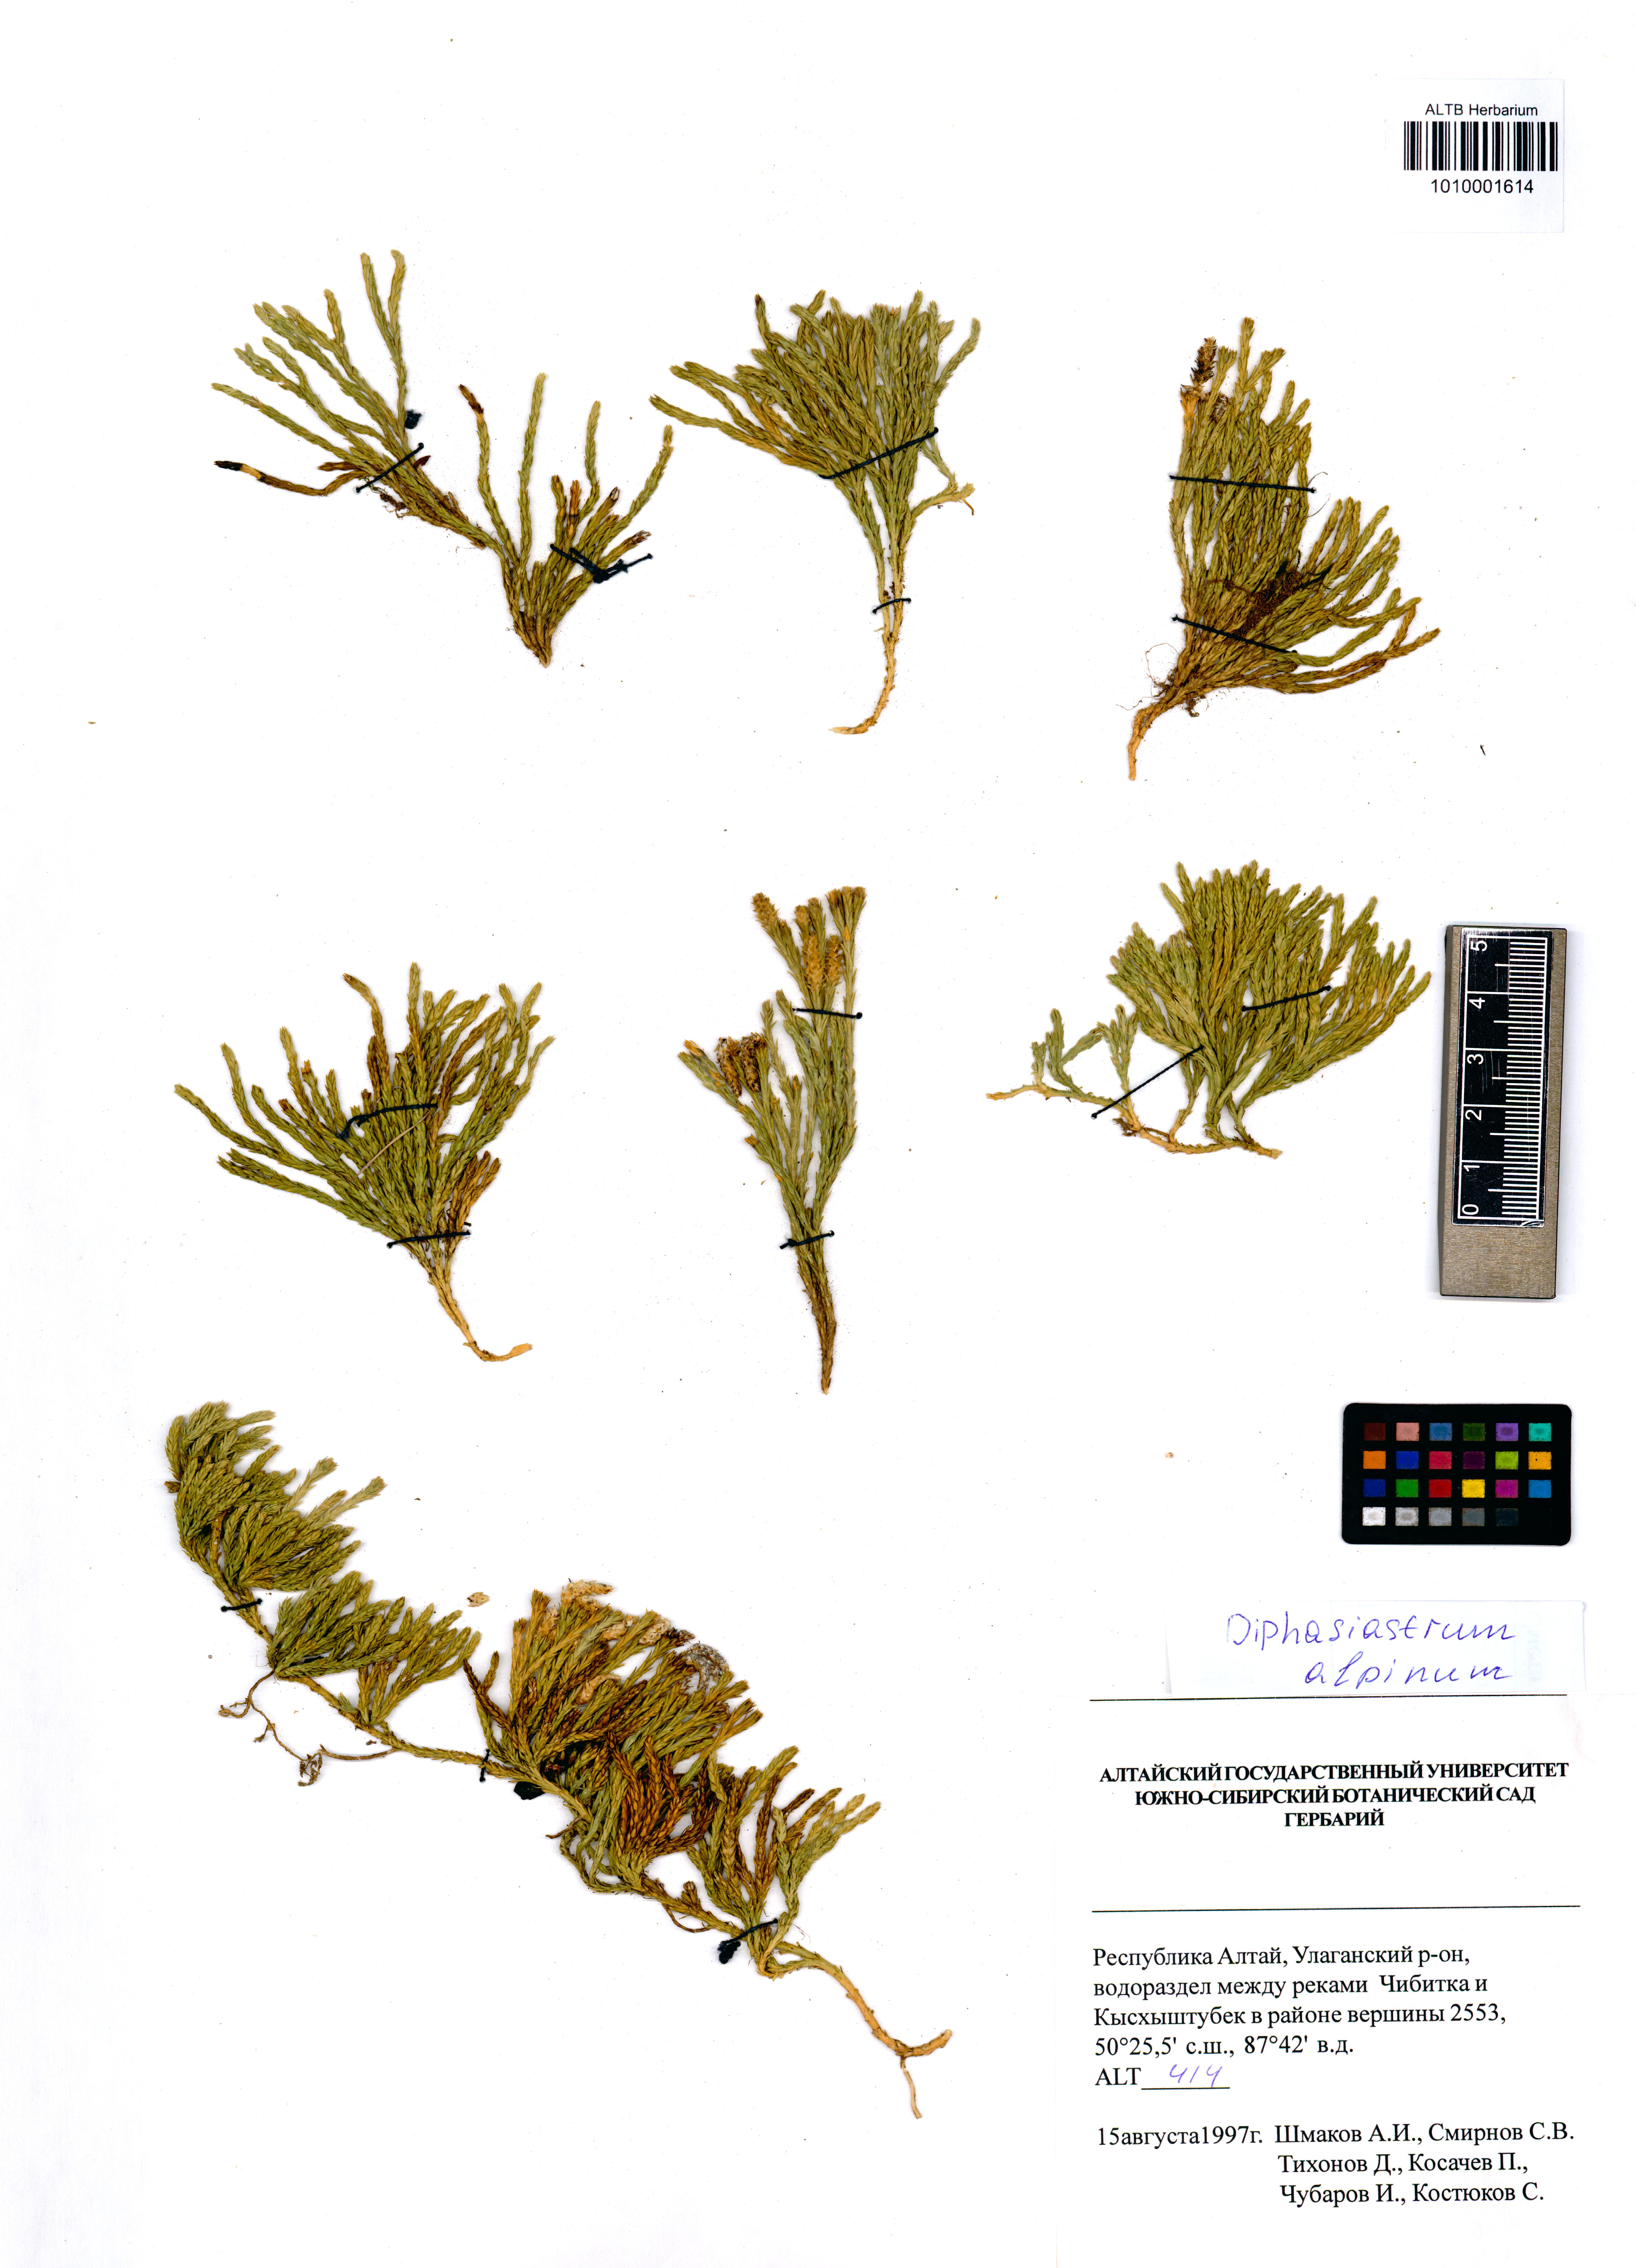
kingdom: Plantae
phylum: Tracheophyta
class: Lycopodiopsida
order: Lycopodiales
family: Lycopodiaceae
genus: Diphasiastrum
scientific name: Diphasiastrum alpinum
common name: Alpine clubmoss
